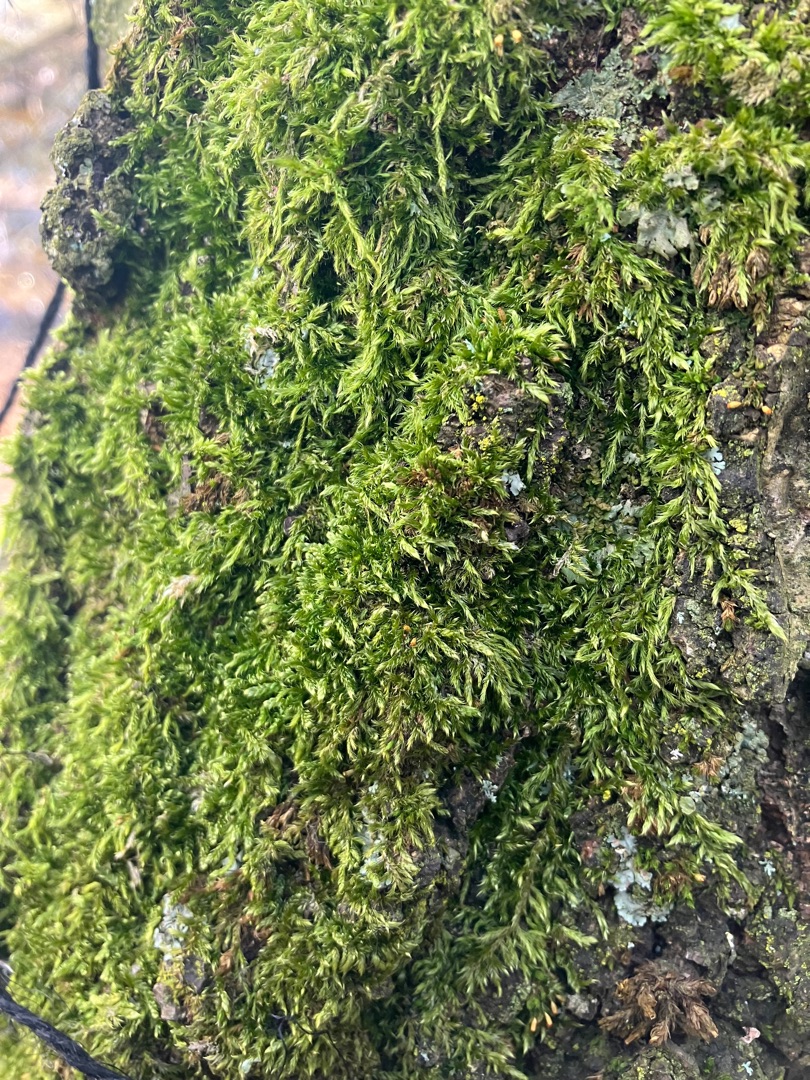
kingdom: Plantae
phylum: Bryophyta
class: Bryopsida
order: Hypnales
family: Hypnaceae
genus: Hypnum
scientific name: Hypnum
